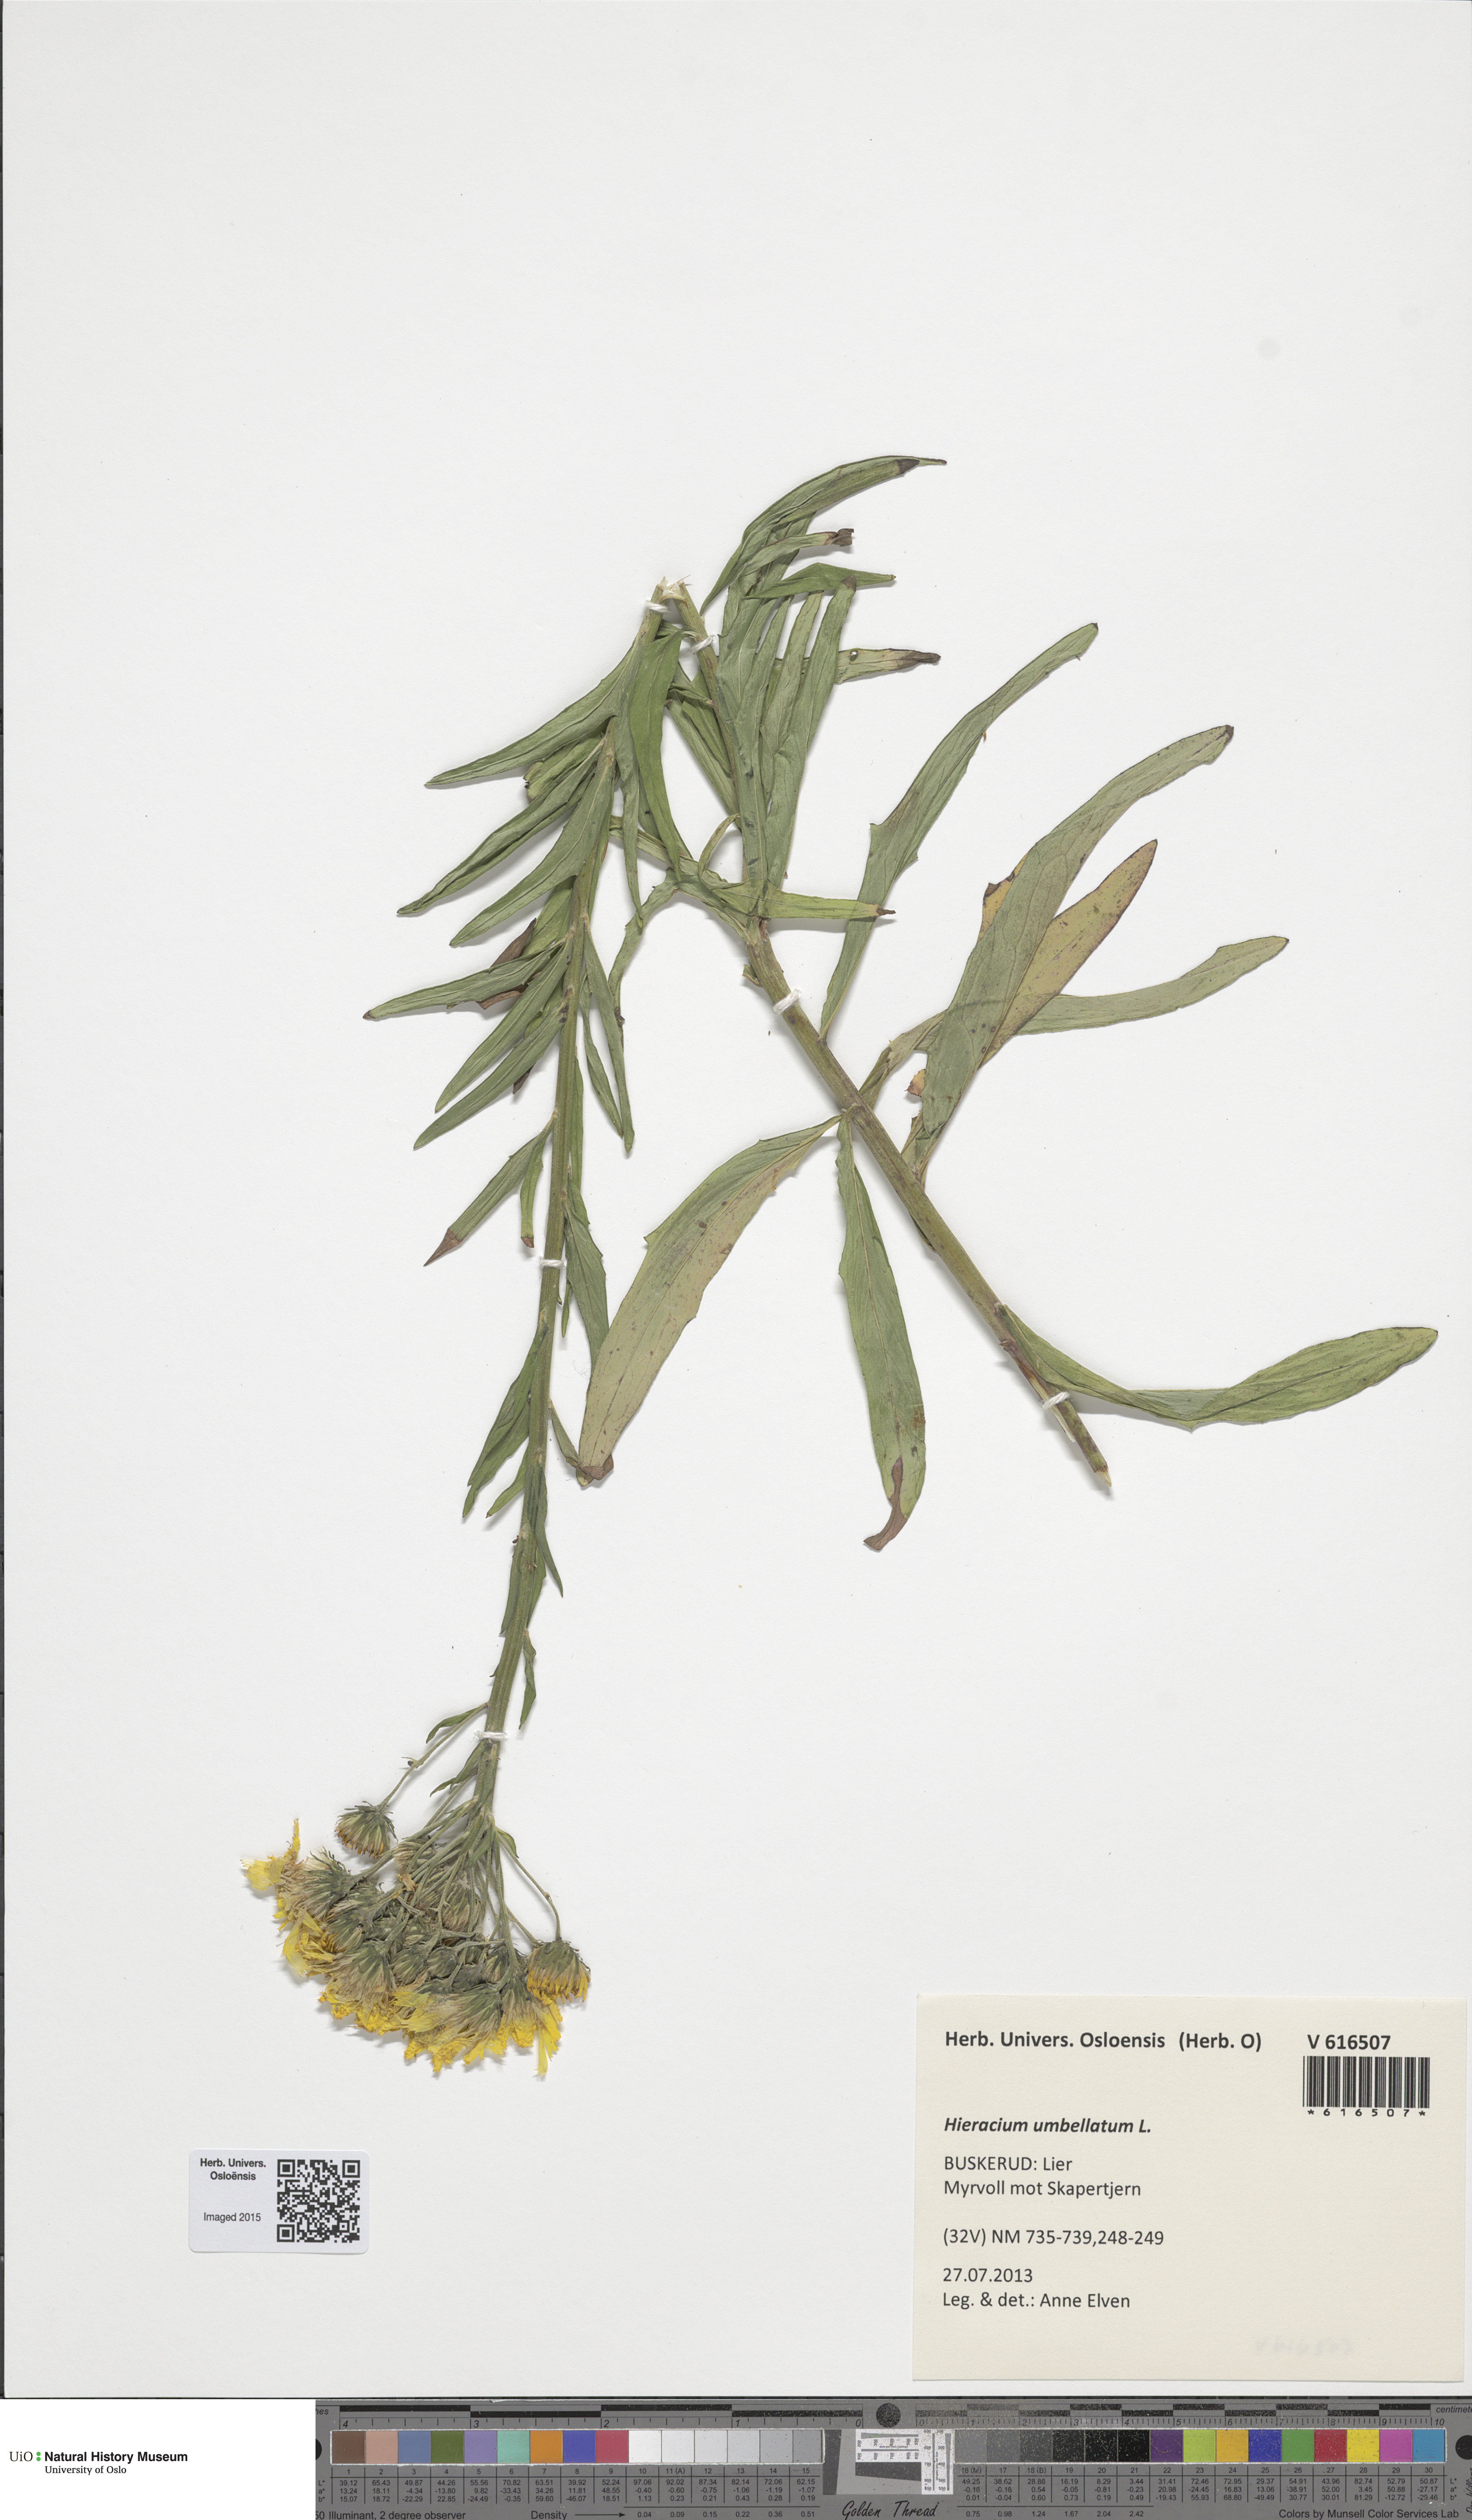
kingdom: Plantae
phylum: Tracheophyta
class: Magnoliopsida
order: Asterales
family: Asteraceae
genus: Hieracium
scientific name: Hieracium umbellatum
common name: Northern hawkweed
